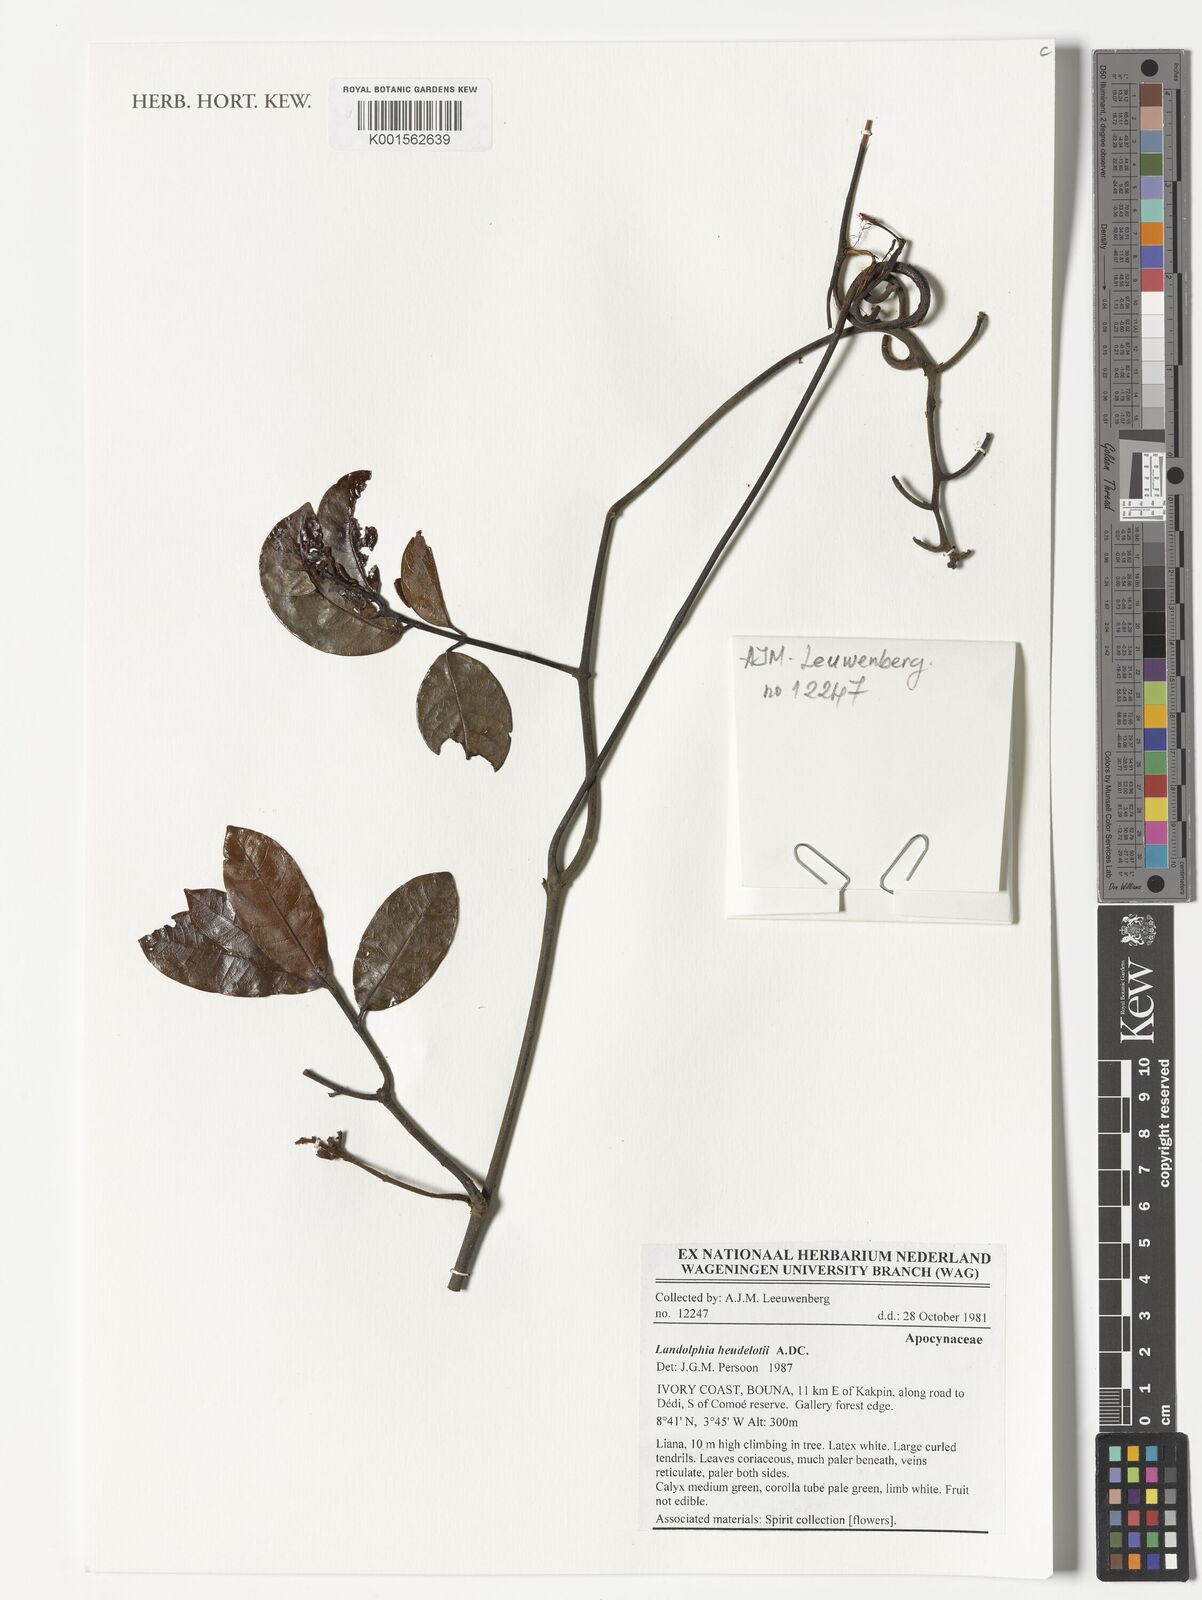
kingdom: Plantae
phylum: Tracheophyta
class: Magnoliopsida
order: Gentianales
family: Apocynaceae
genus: Landolphia
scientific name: Landolphia heudelotii
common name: Landolphia-rubber
